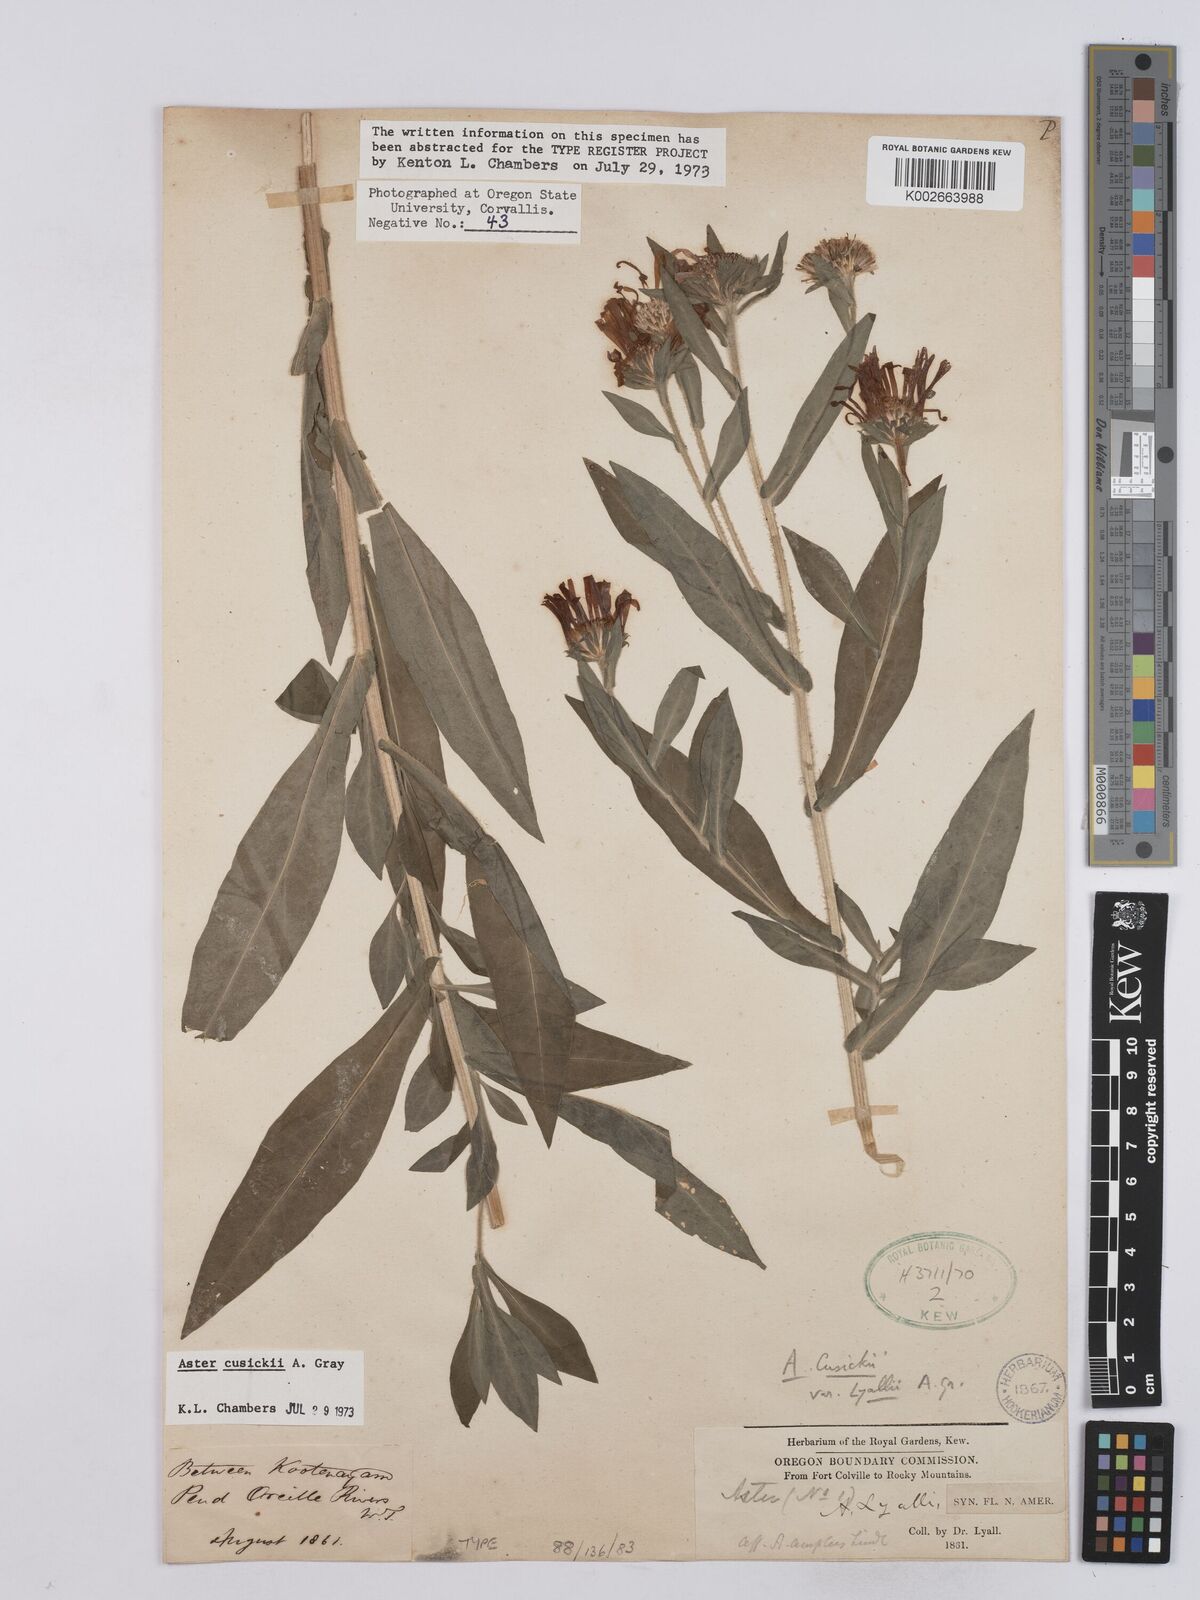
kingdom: Plantae
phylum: Tracheophyta
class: Magnoliopsida
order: Asterales
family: Asteraceae
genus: Symphyotrichum
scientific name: Symphyotrichum foliaceum
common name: Leafy aster
